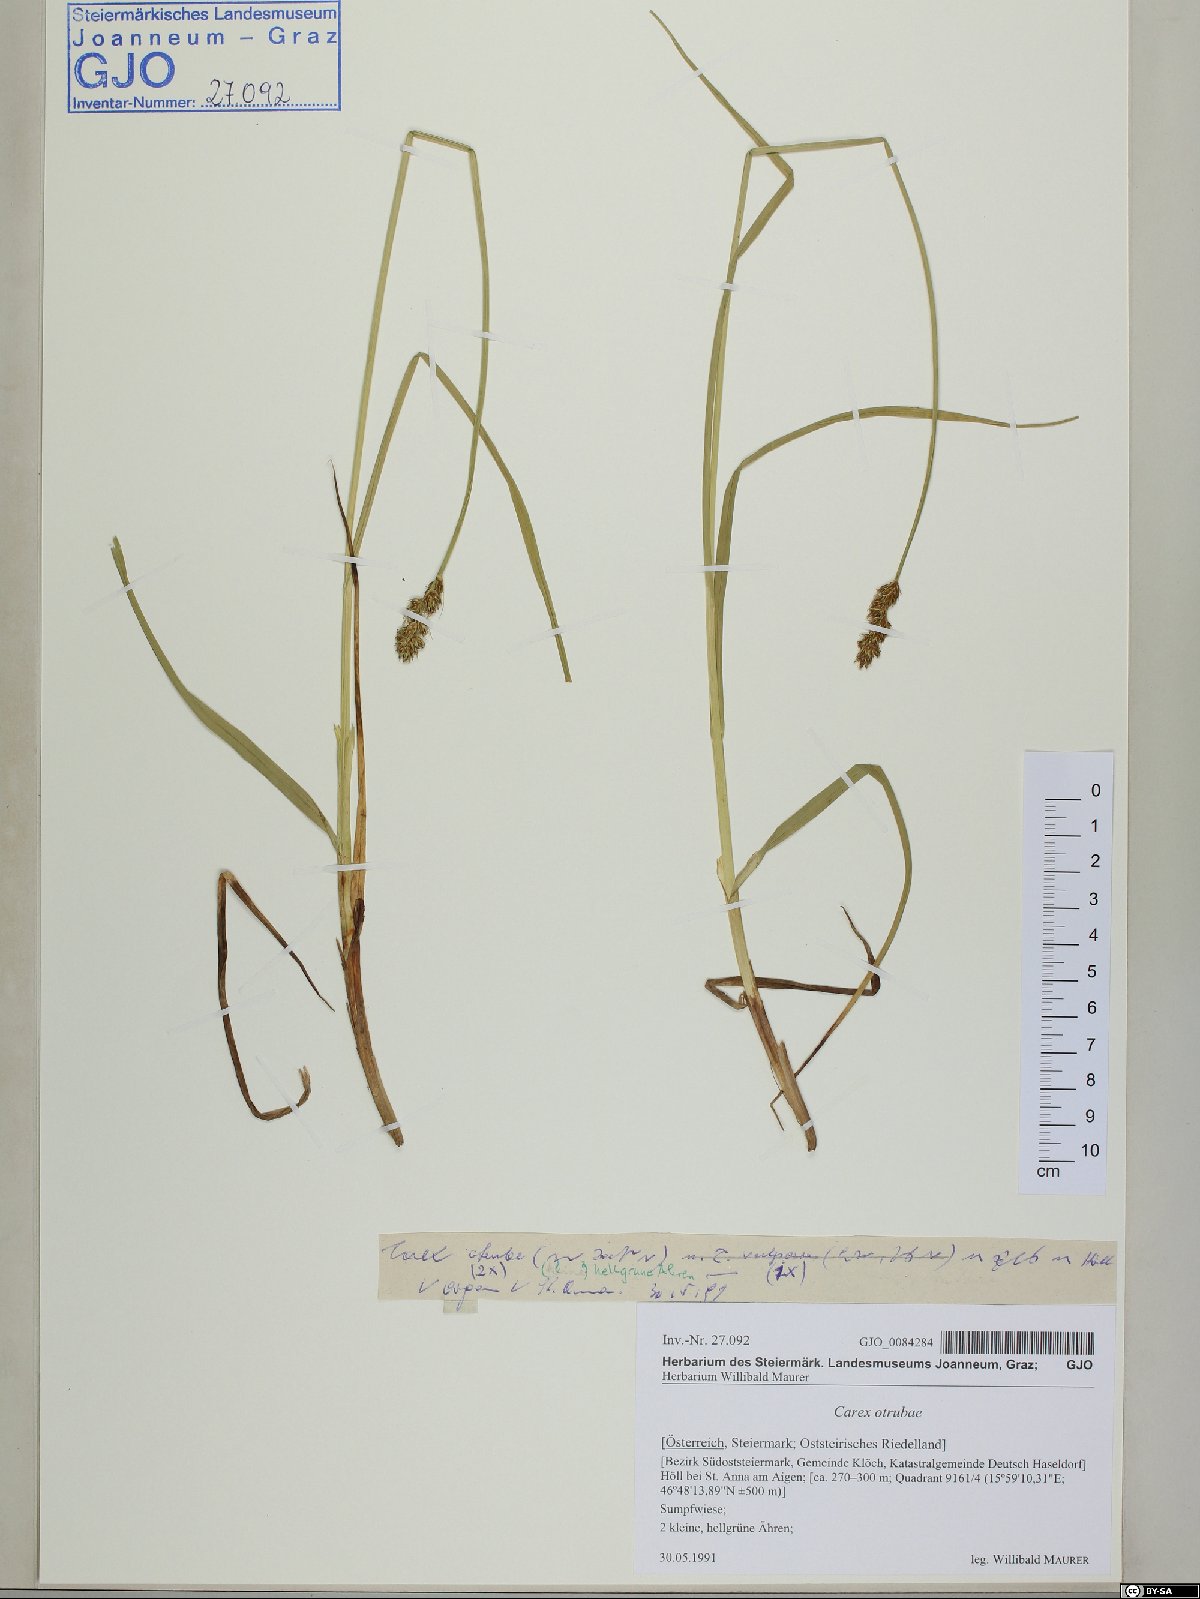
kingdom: Plantae
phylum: Tracheophyta
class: Liliopsida
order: Poales
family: Cyperaceae
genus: Carex
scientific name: Carex otrubae
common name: False fox-sedge
